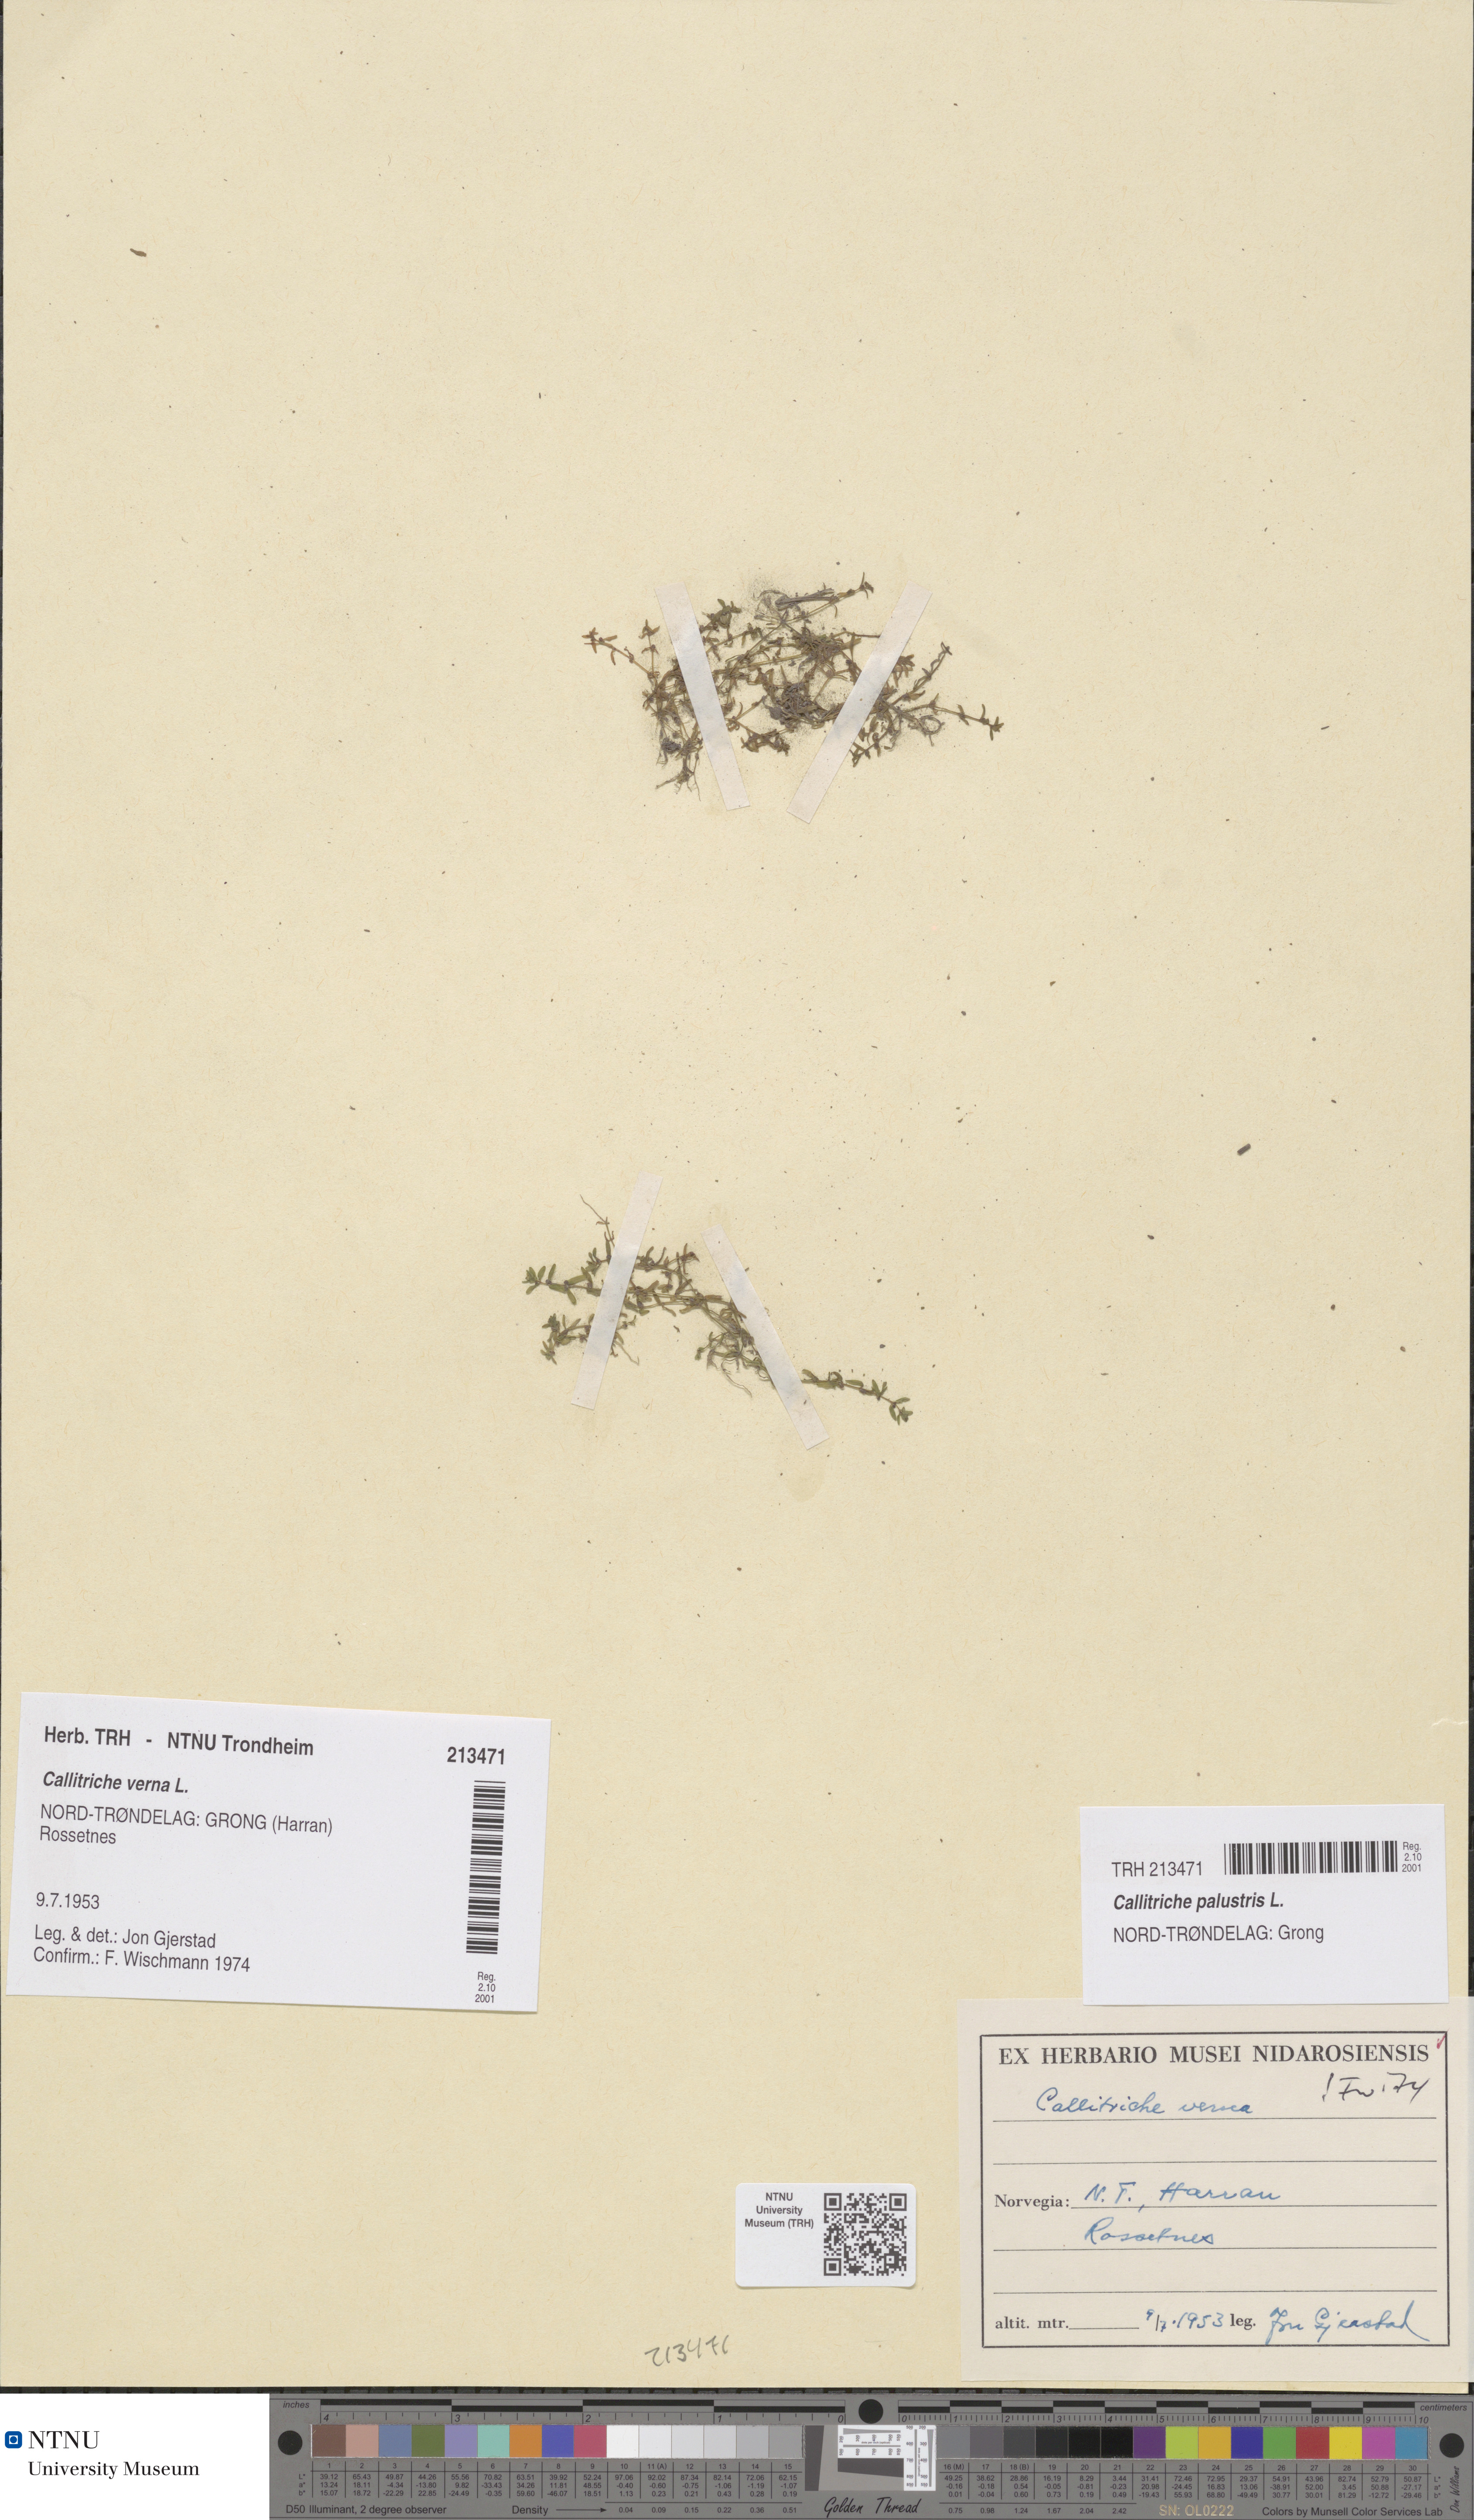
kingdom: Plantae
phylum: Tracheophyta
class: Magnoliopsida
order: Lamiales
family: Plantaginaceae
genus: Callitriche
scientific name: Callitriche palustris
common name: Spring water-starwort
